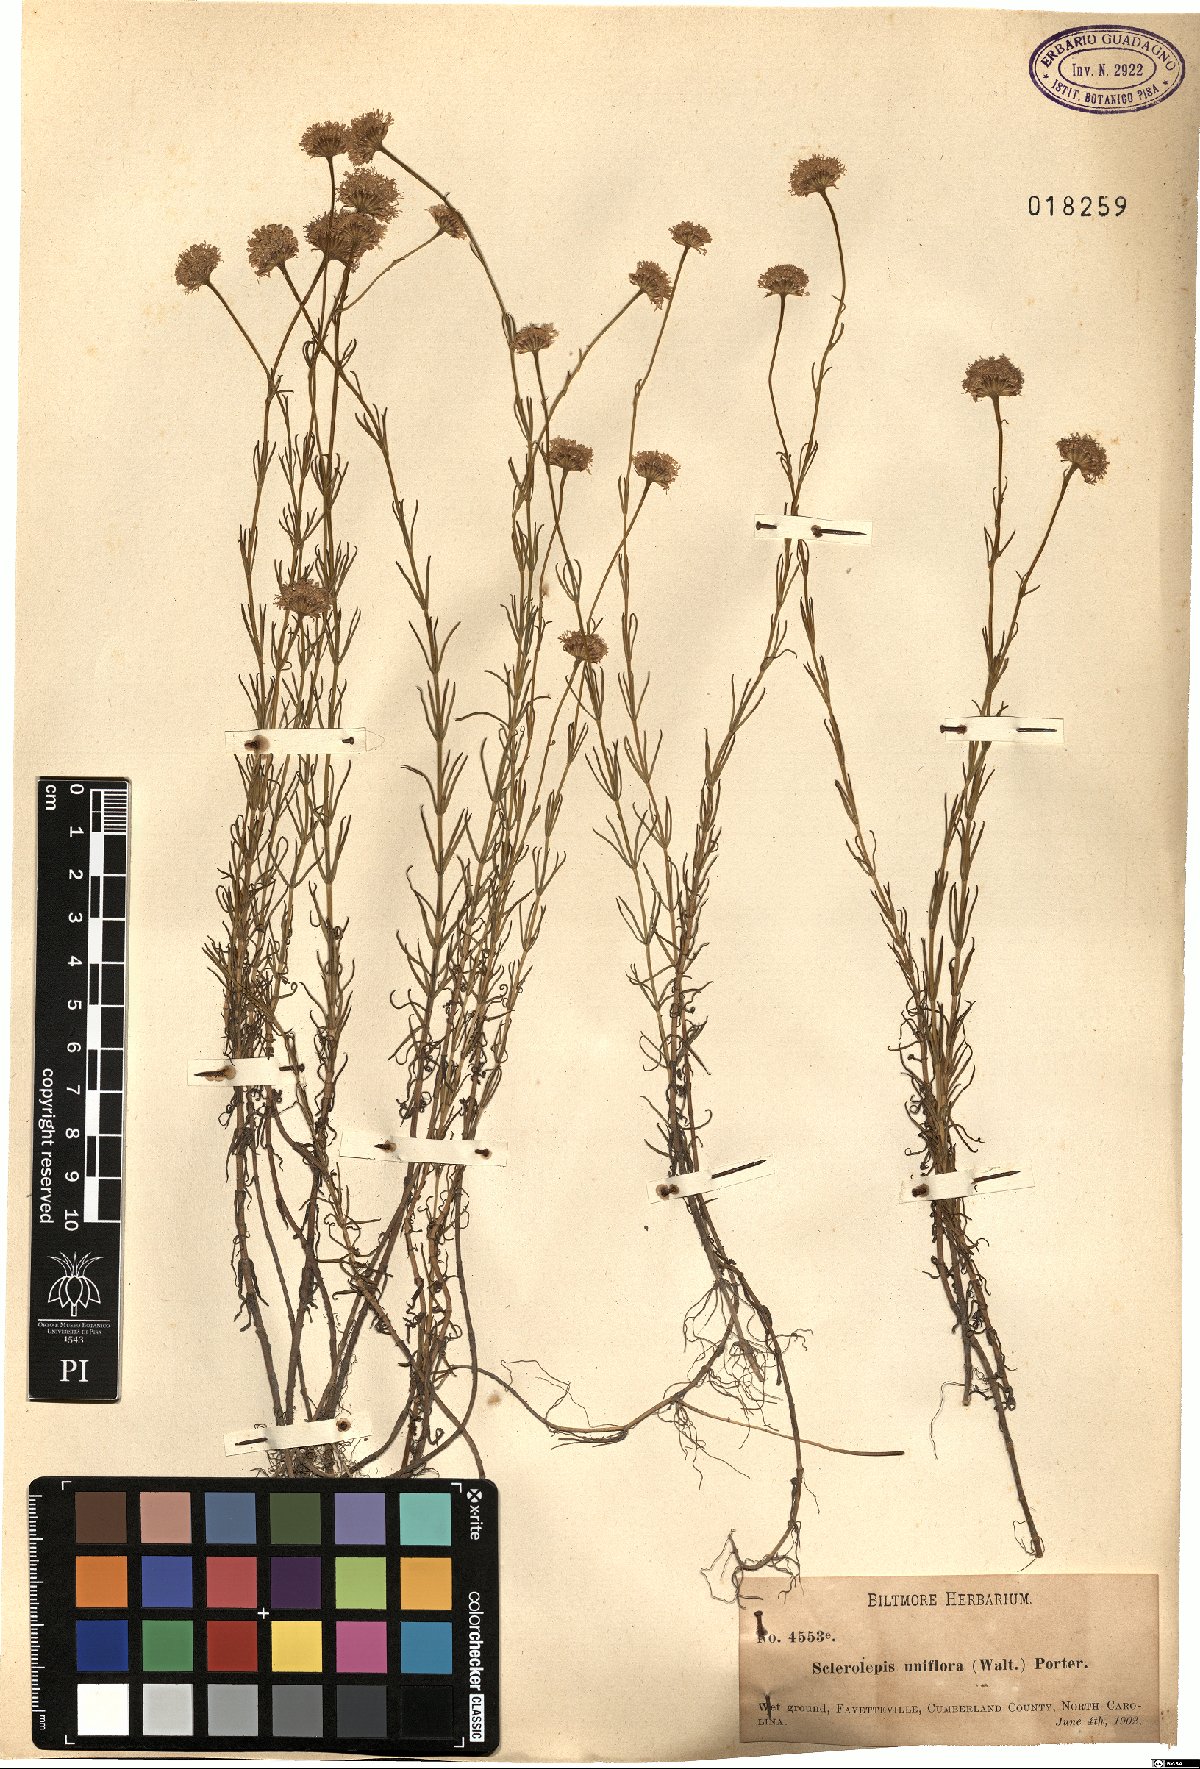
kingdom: Plantae
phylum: Tracheophyta
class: Magnoliopsida
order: Asterales
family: Asteraceae
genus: Sclerolepis
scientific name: Sclerolepis uniflora
